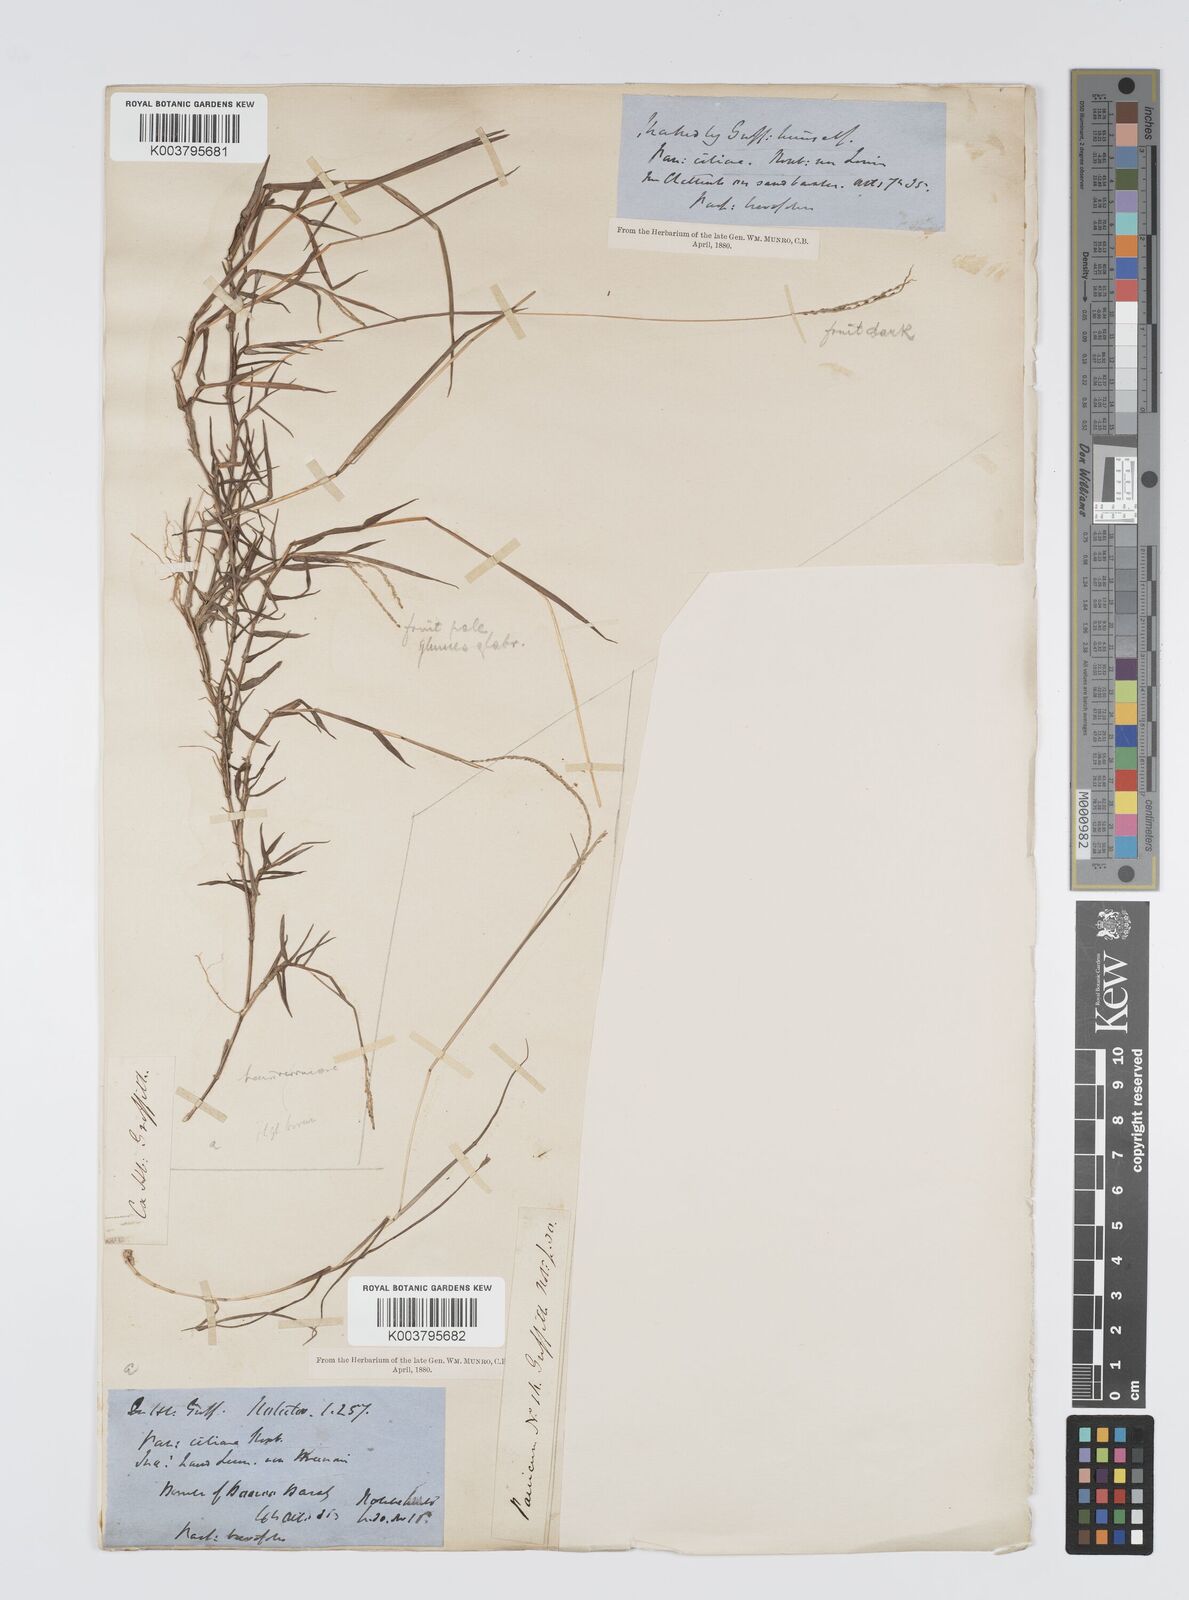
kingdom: Plantae
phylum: Tracheophyta
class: Liliopsida
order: Poales
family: Poaceae
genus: Digitaria
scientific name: Digitaria longiflora
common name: Wire crabgrass
